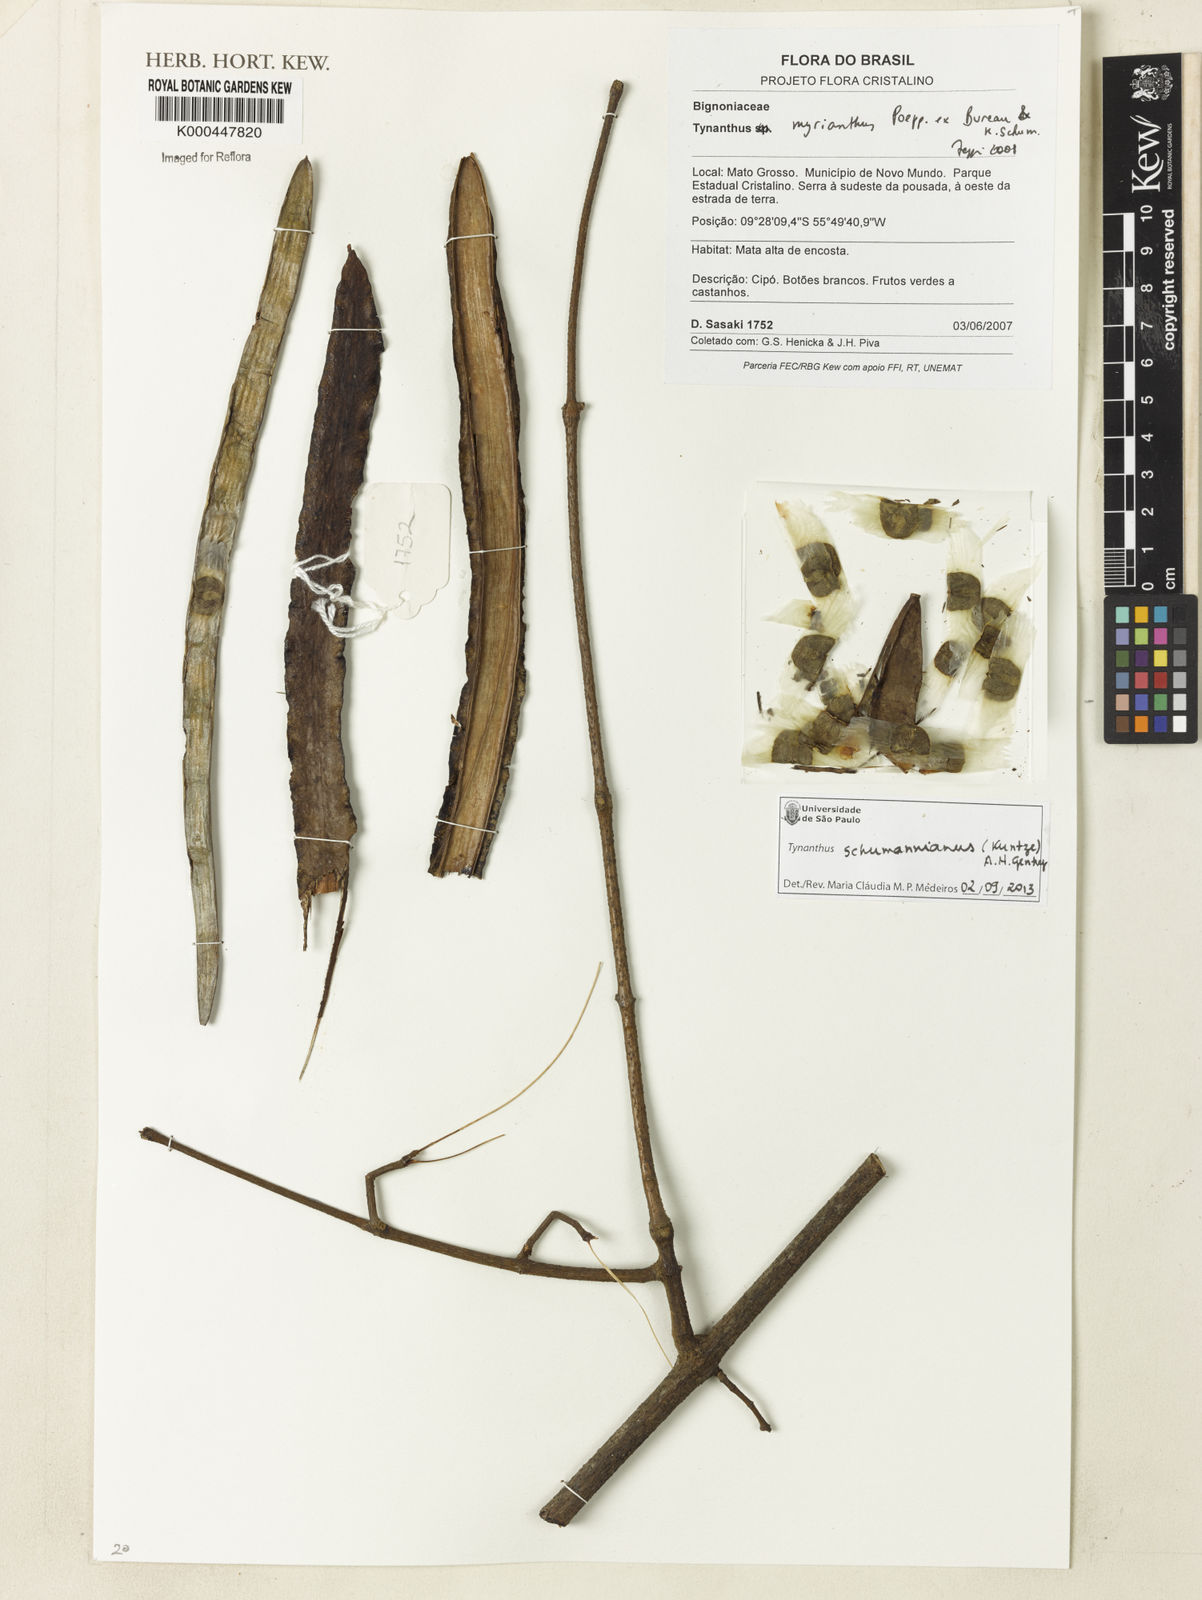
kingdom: Plantae
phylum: Tracheophyta
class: Magnoliopsida
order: Lamiales
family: Bignoniaceae
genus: Tynanthus
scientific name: Tynanthus polyanthus
